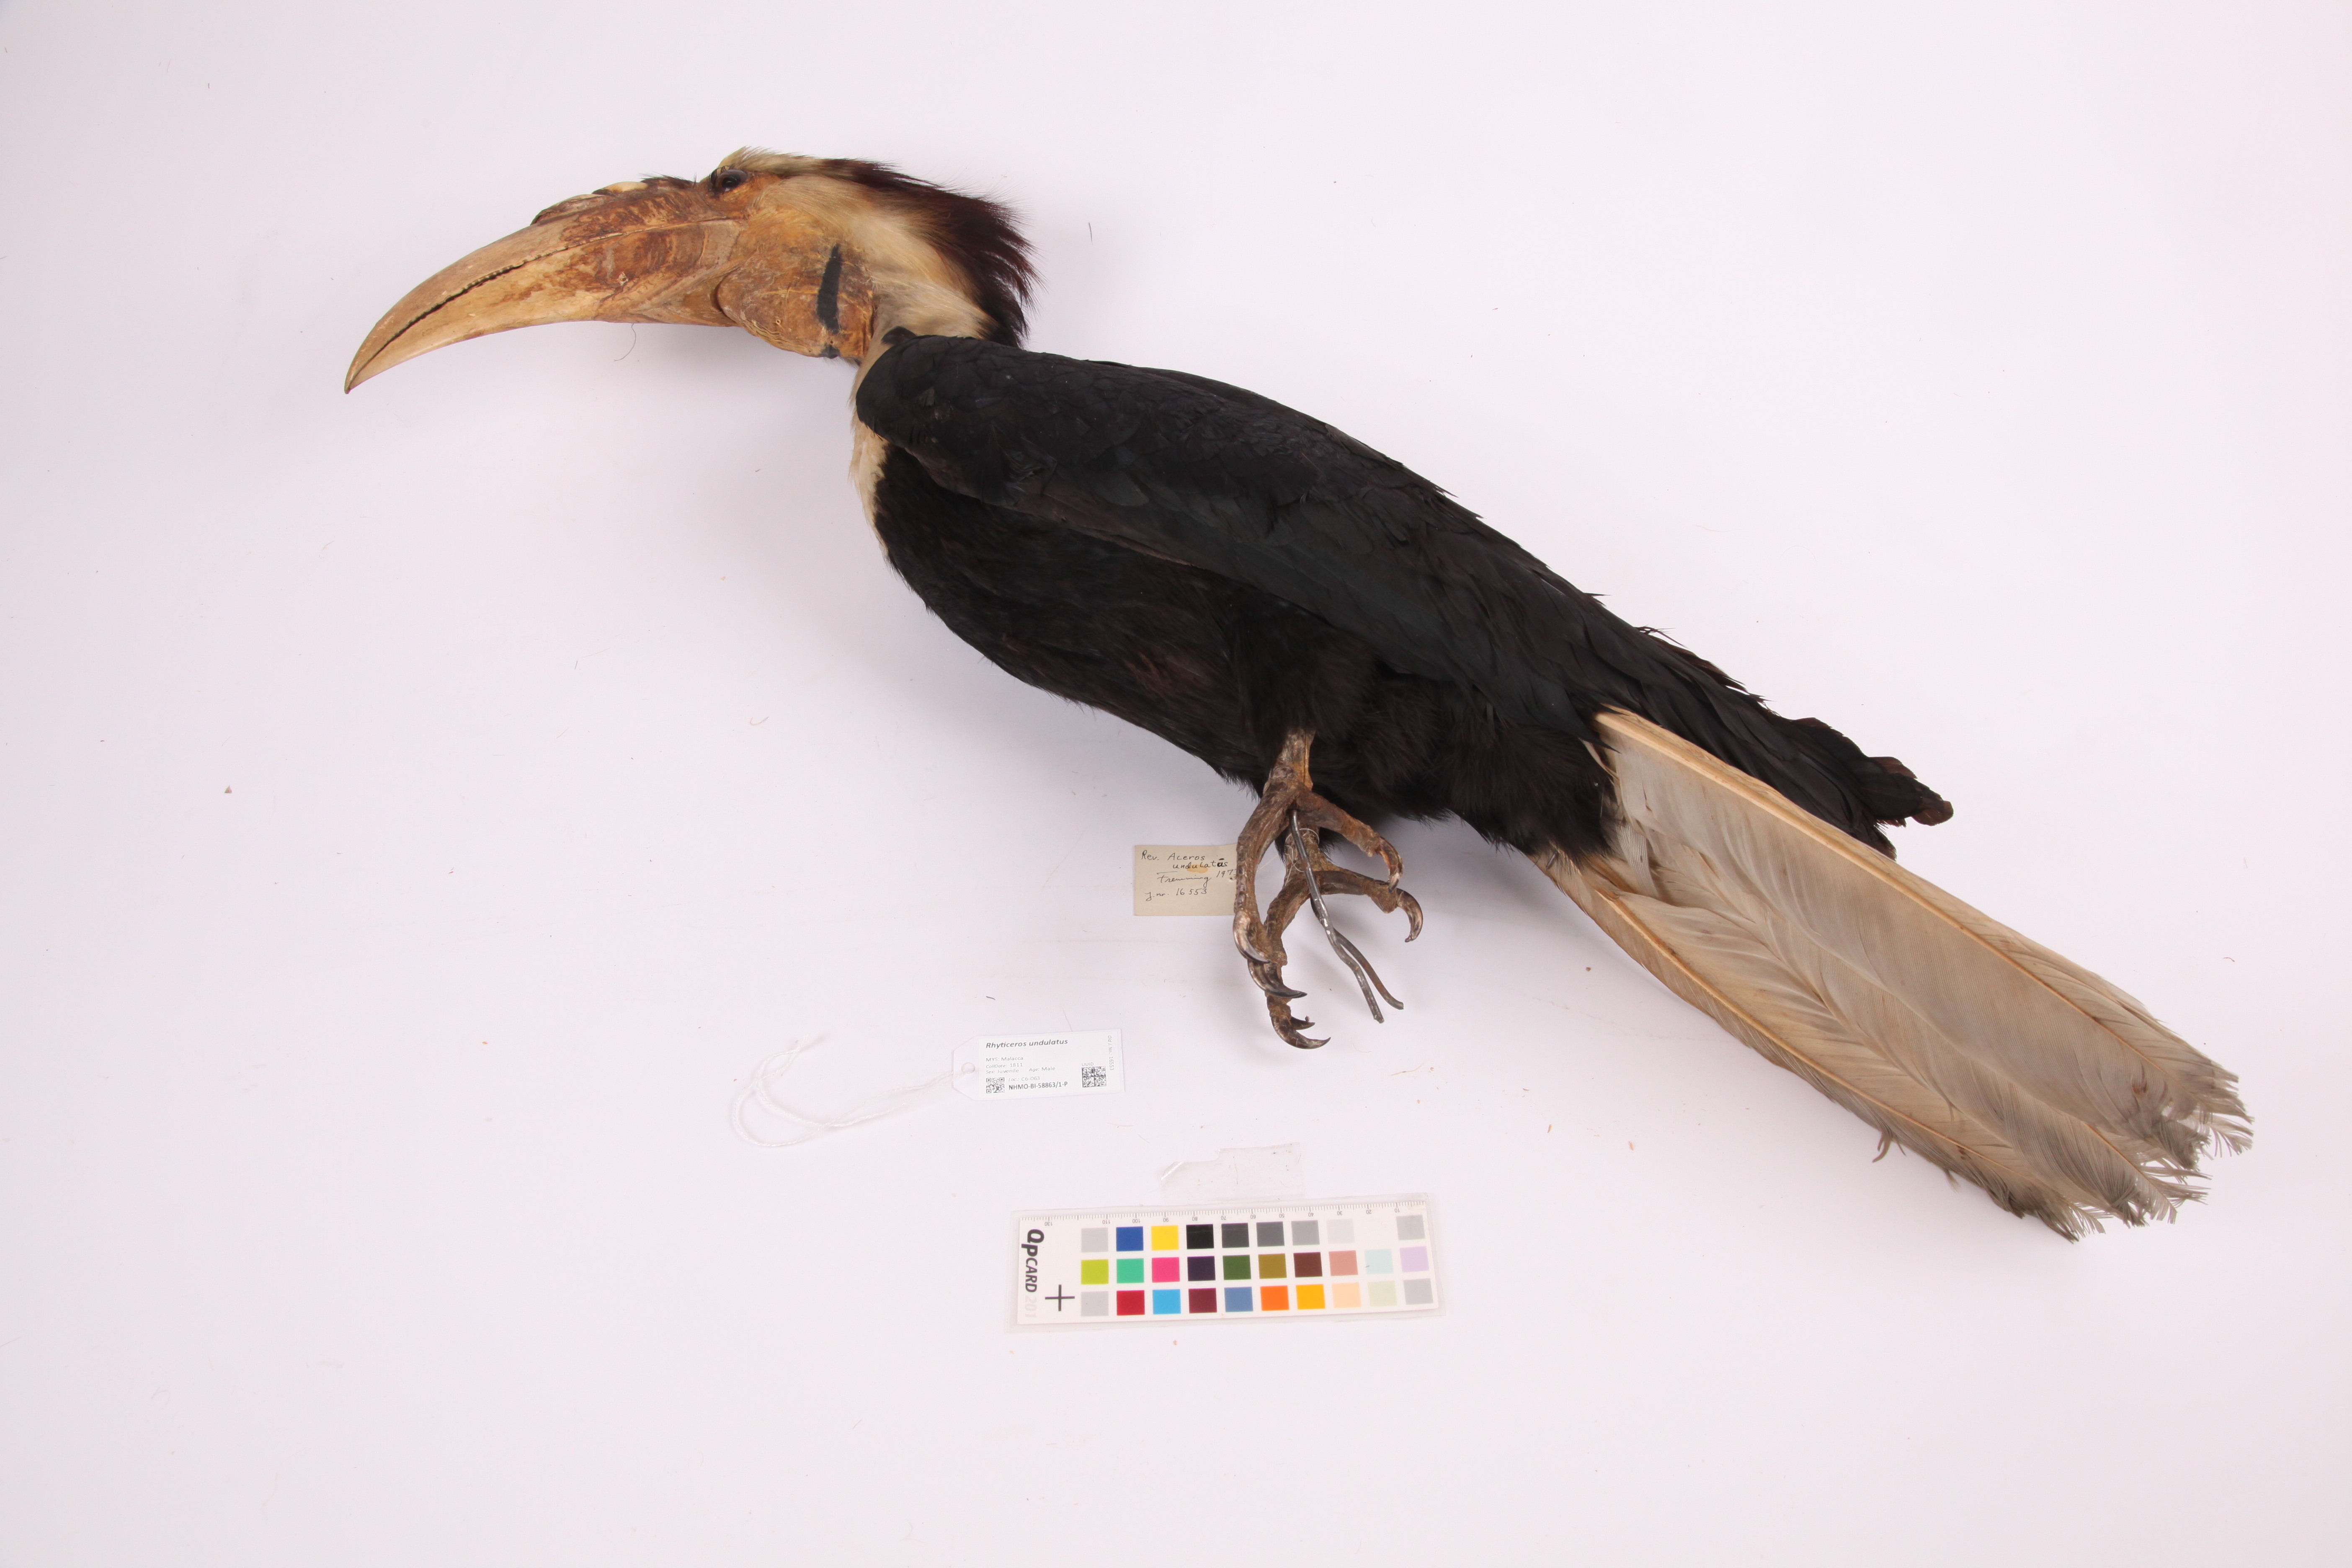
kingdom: Animalia
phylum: Chordata
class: Aves
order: Bucerotiformes
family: Bucerotidae
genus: Rhyticeros
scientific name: Rhyticeros undulatus
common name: Wreathed hornbill
